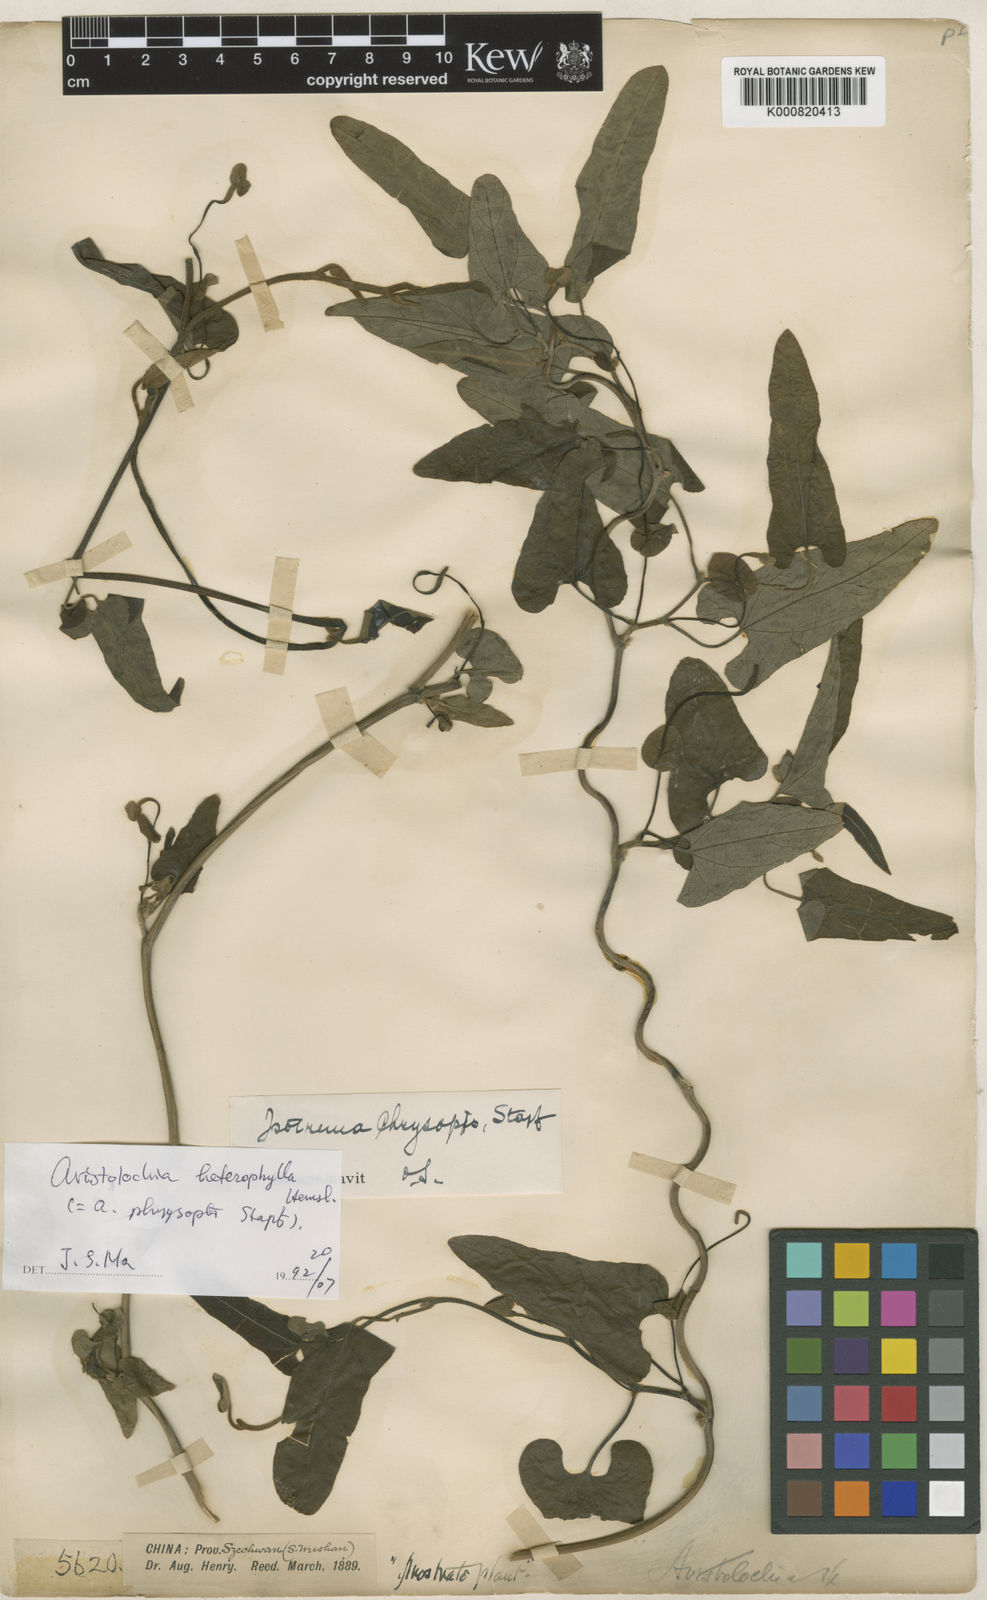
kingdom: Plantae
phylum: Tracheophyta
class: Magnoliopsida
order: Piperales
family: Aristolochiaceae
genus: Isotrema
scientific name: Isotrema kaempferi
